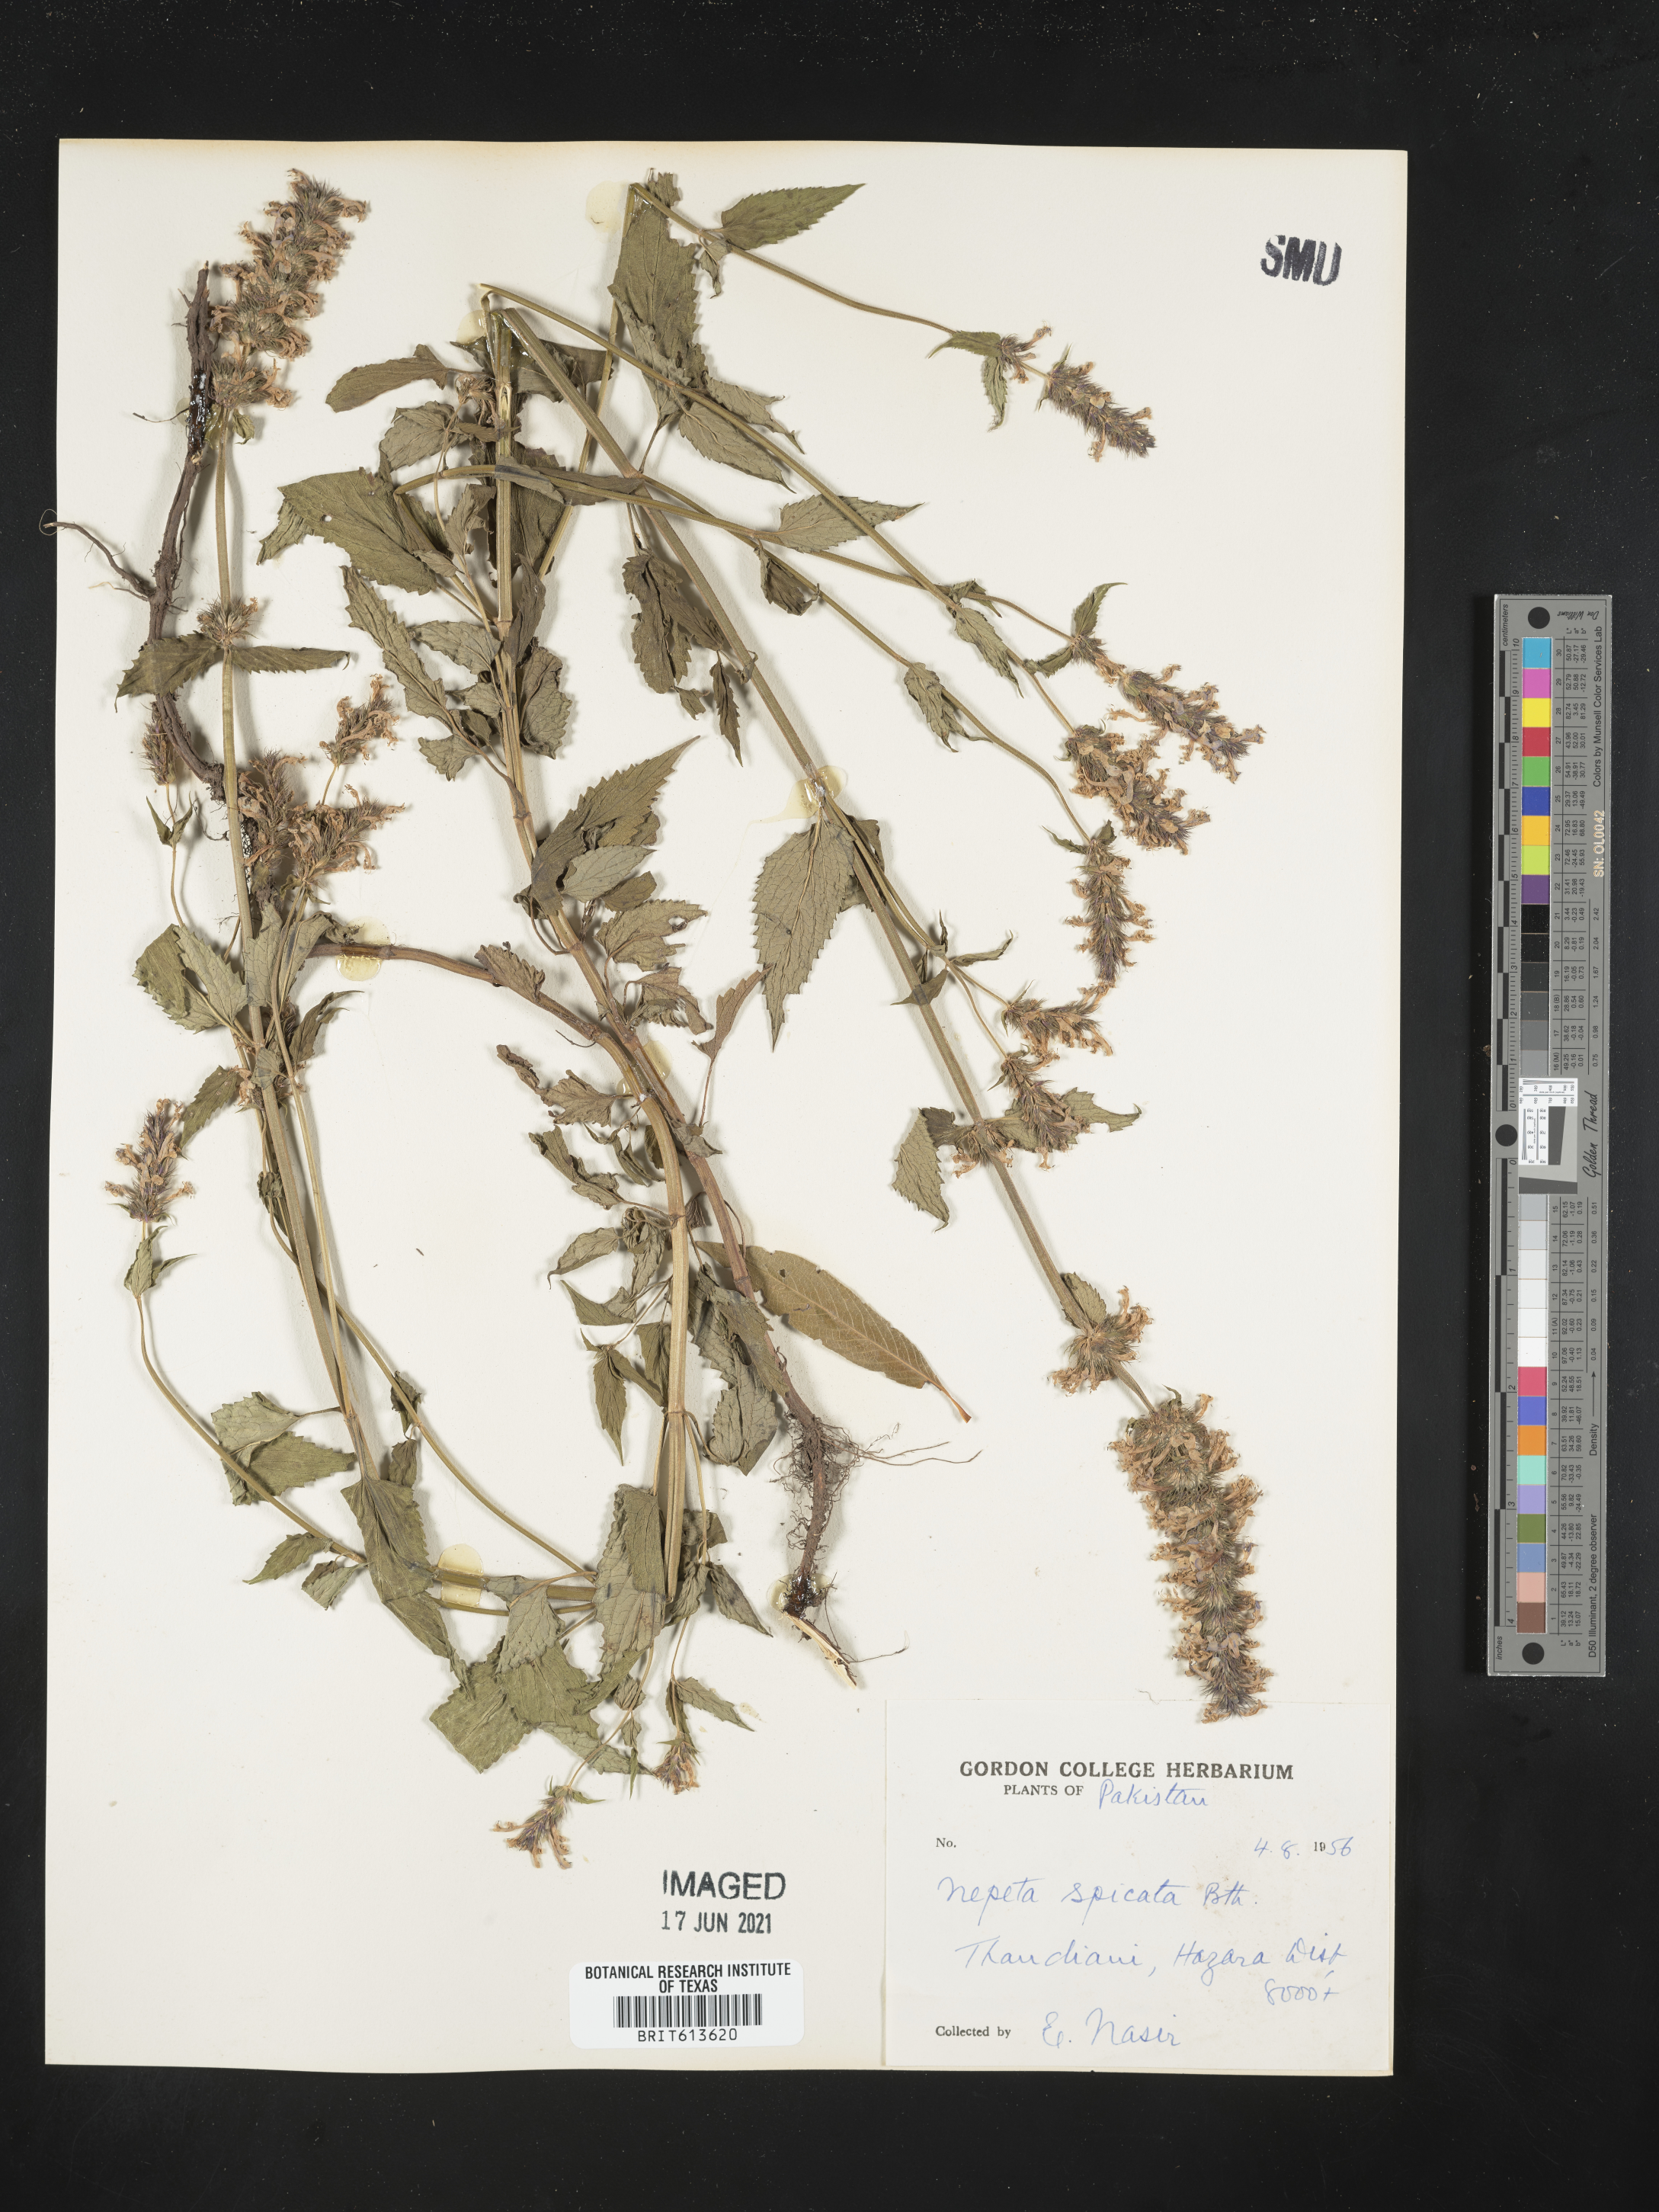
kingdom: Plantae
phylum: Tracheophyta
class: Magnoliopsida
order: Lamiales
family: Lamiaceae
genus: Nepeta
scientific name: Nepeta laevigata
